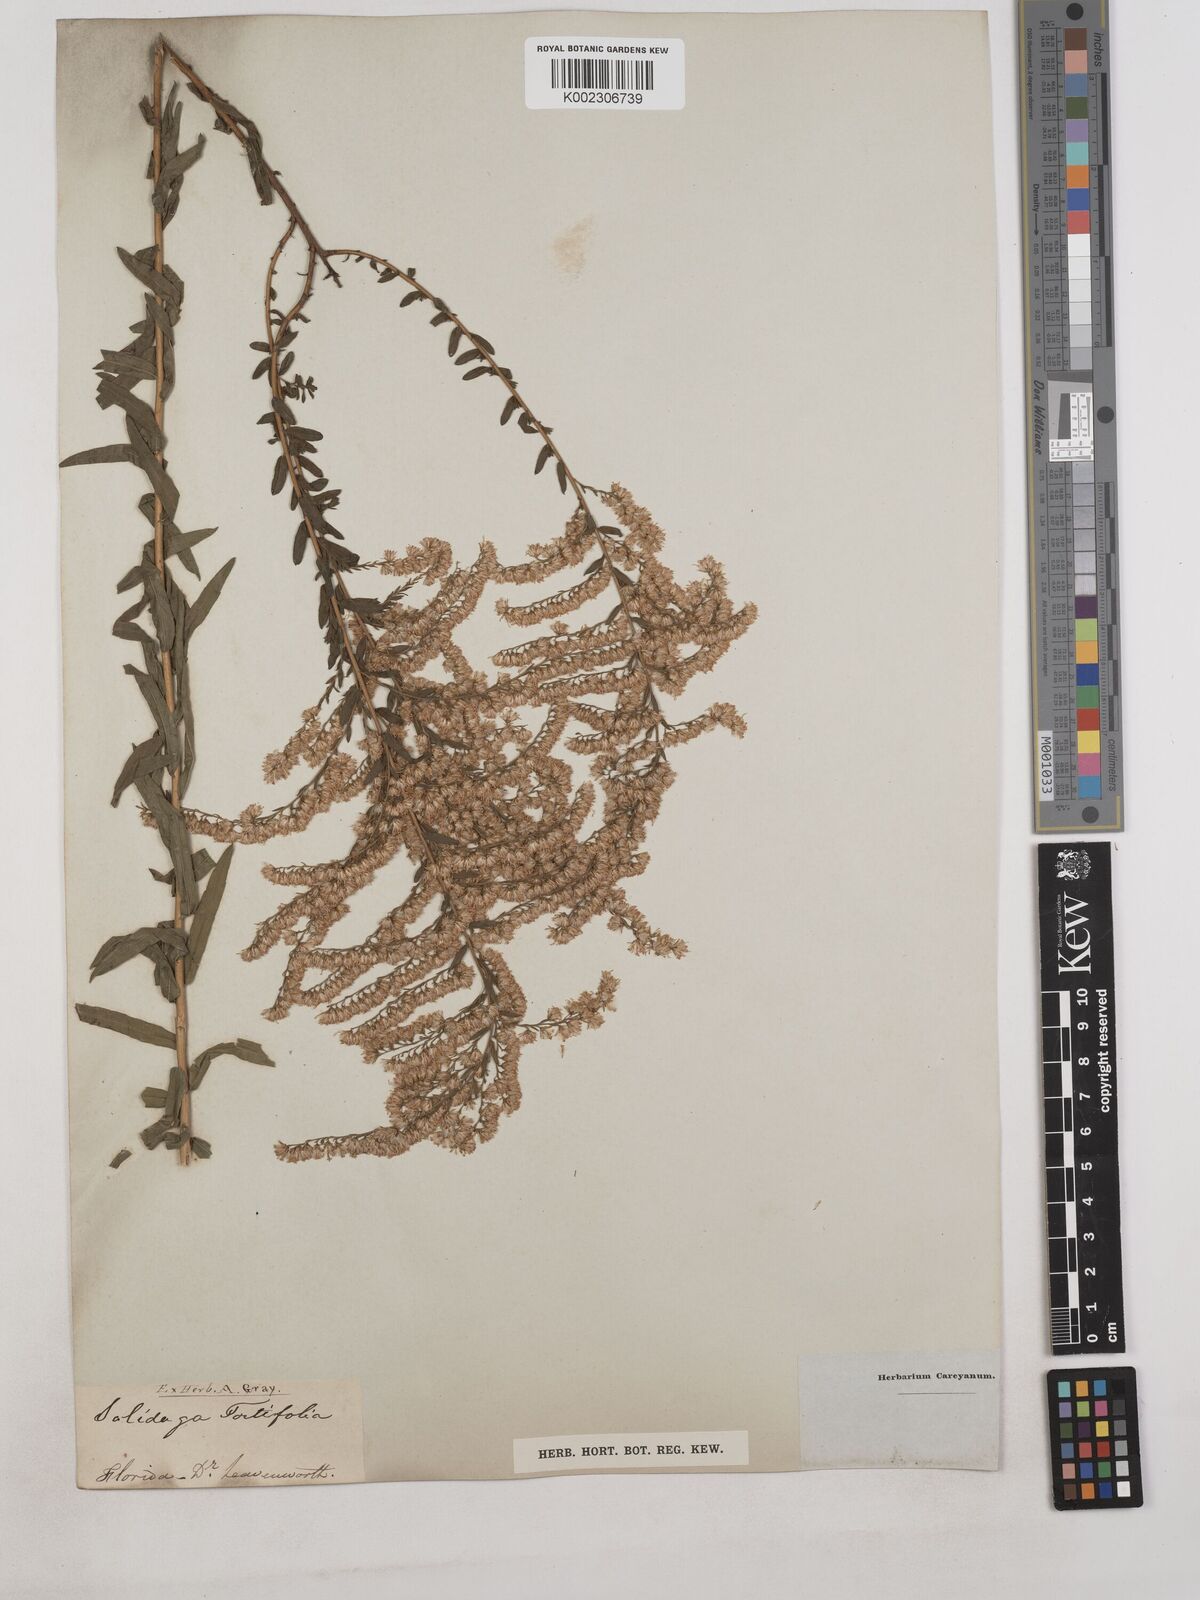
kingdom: Plantae
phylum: Tracheophyta
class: Magnoliopsida
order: Asterales
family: Asteraceae
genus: Solidago
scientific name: Solidago tortifolia
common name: Twisted-leaf goldenrod
